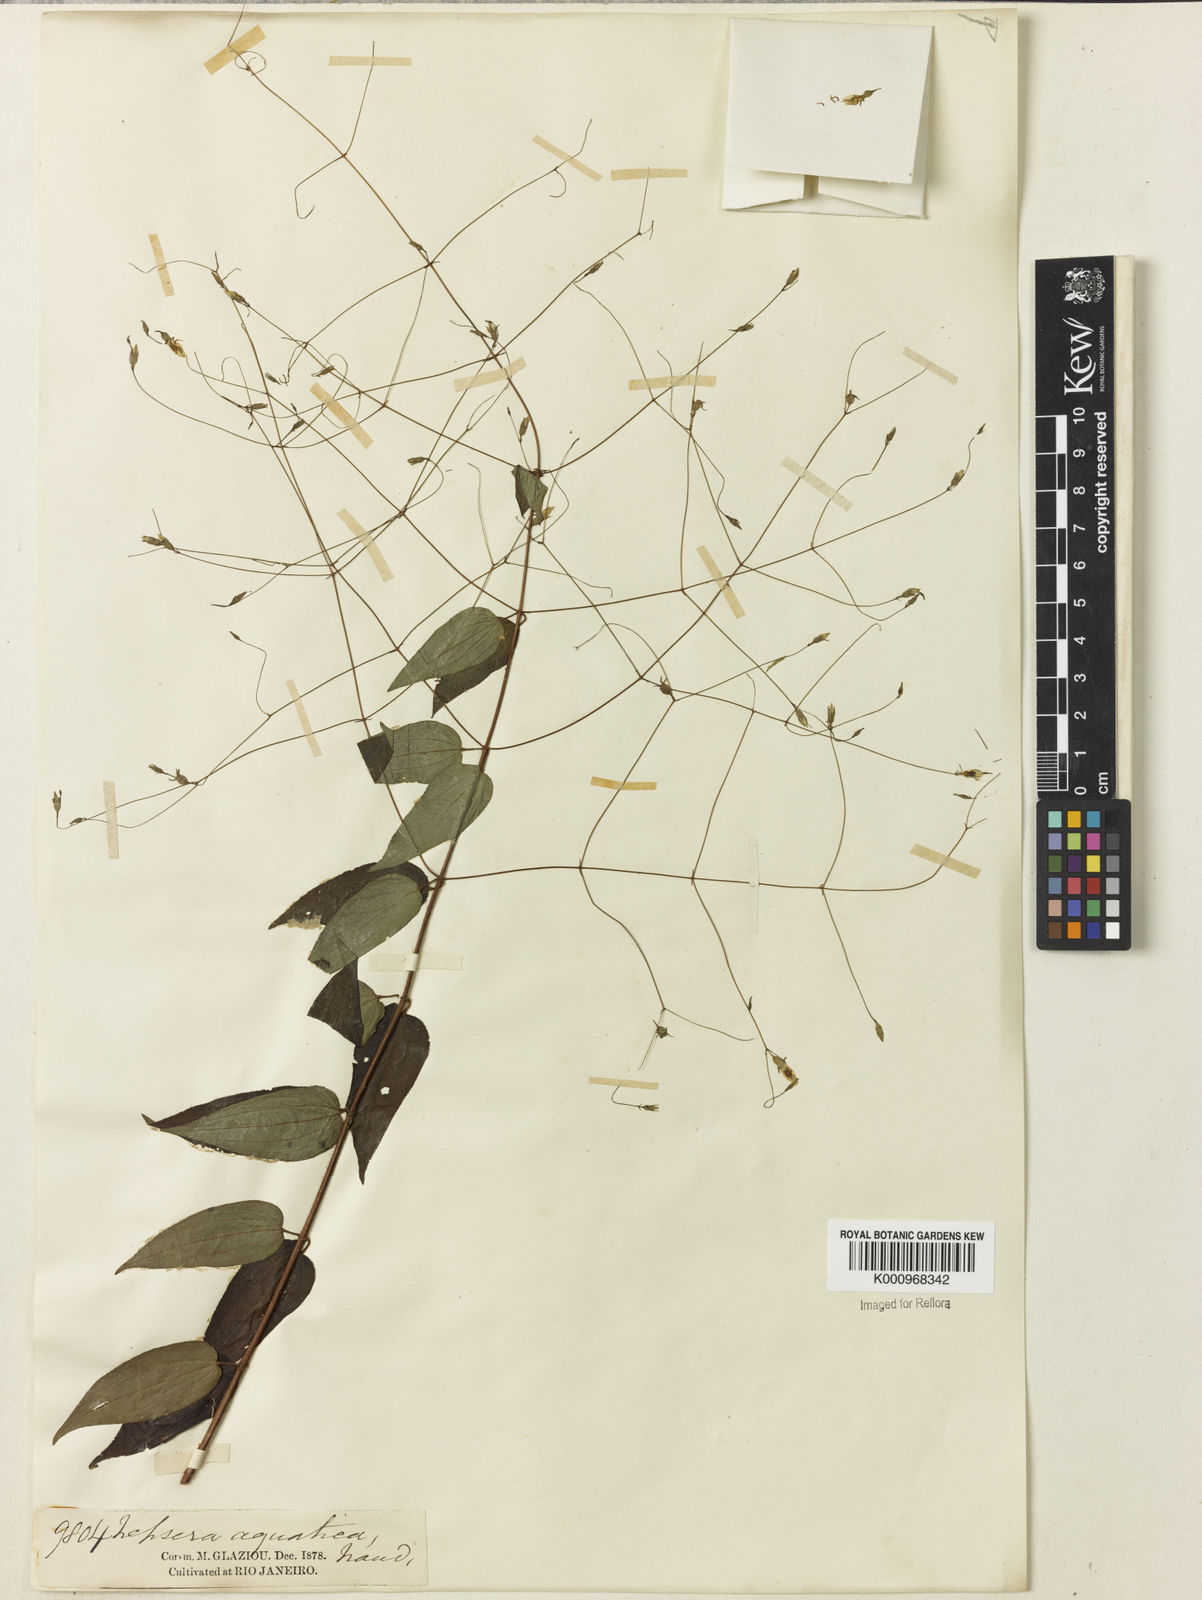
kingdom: Plantae
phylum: Tracheophyta
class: Magnoliopsida
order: Myrtales
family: Melastomataceae
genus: Nepsera
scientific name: Nepsera aquatica
